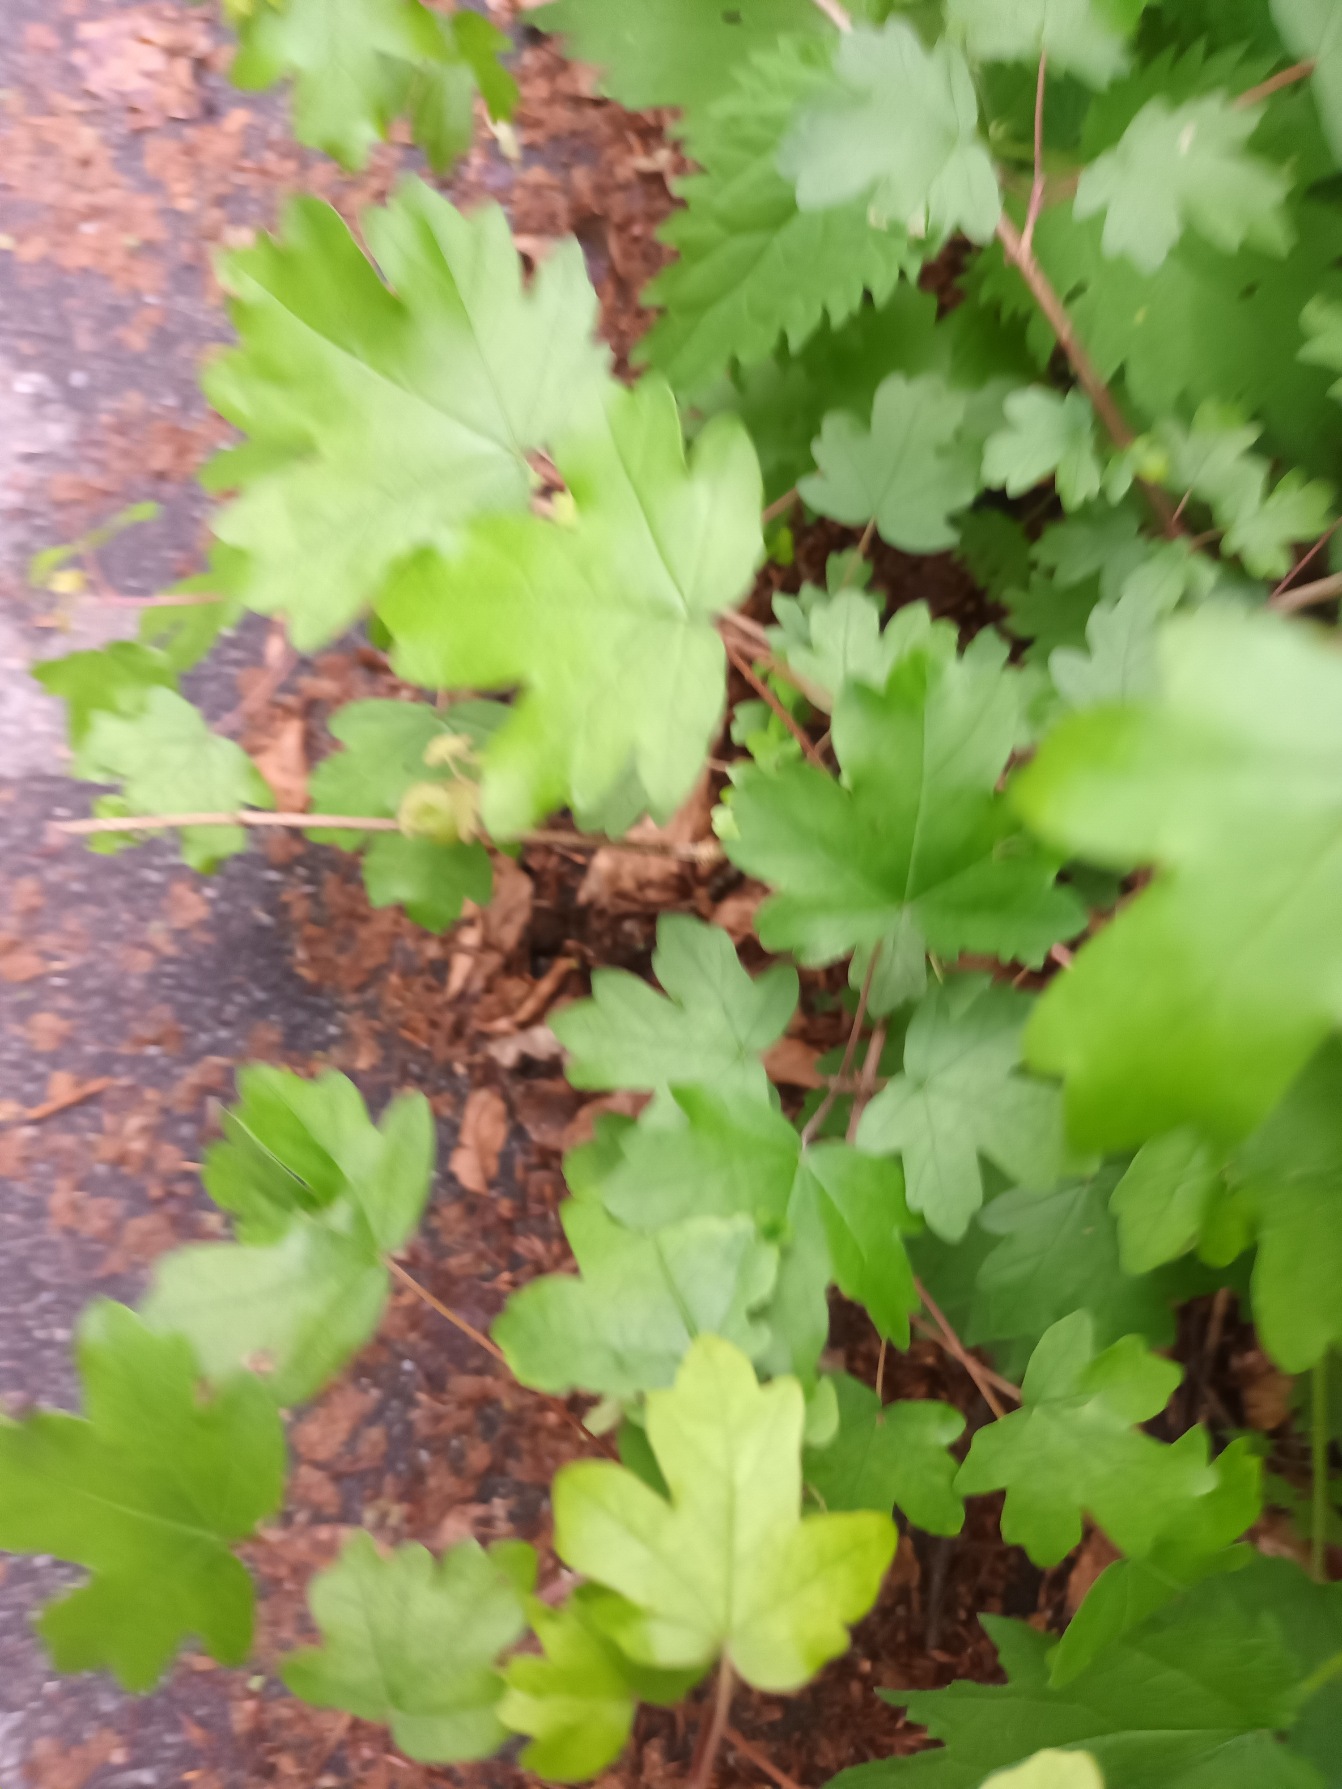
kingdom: Plantae
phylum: Tracheophyta
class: Magnoliopsida
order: Sapindales
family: Sapindaceae
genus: Acer
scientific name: Acer campestre
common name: Navr
